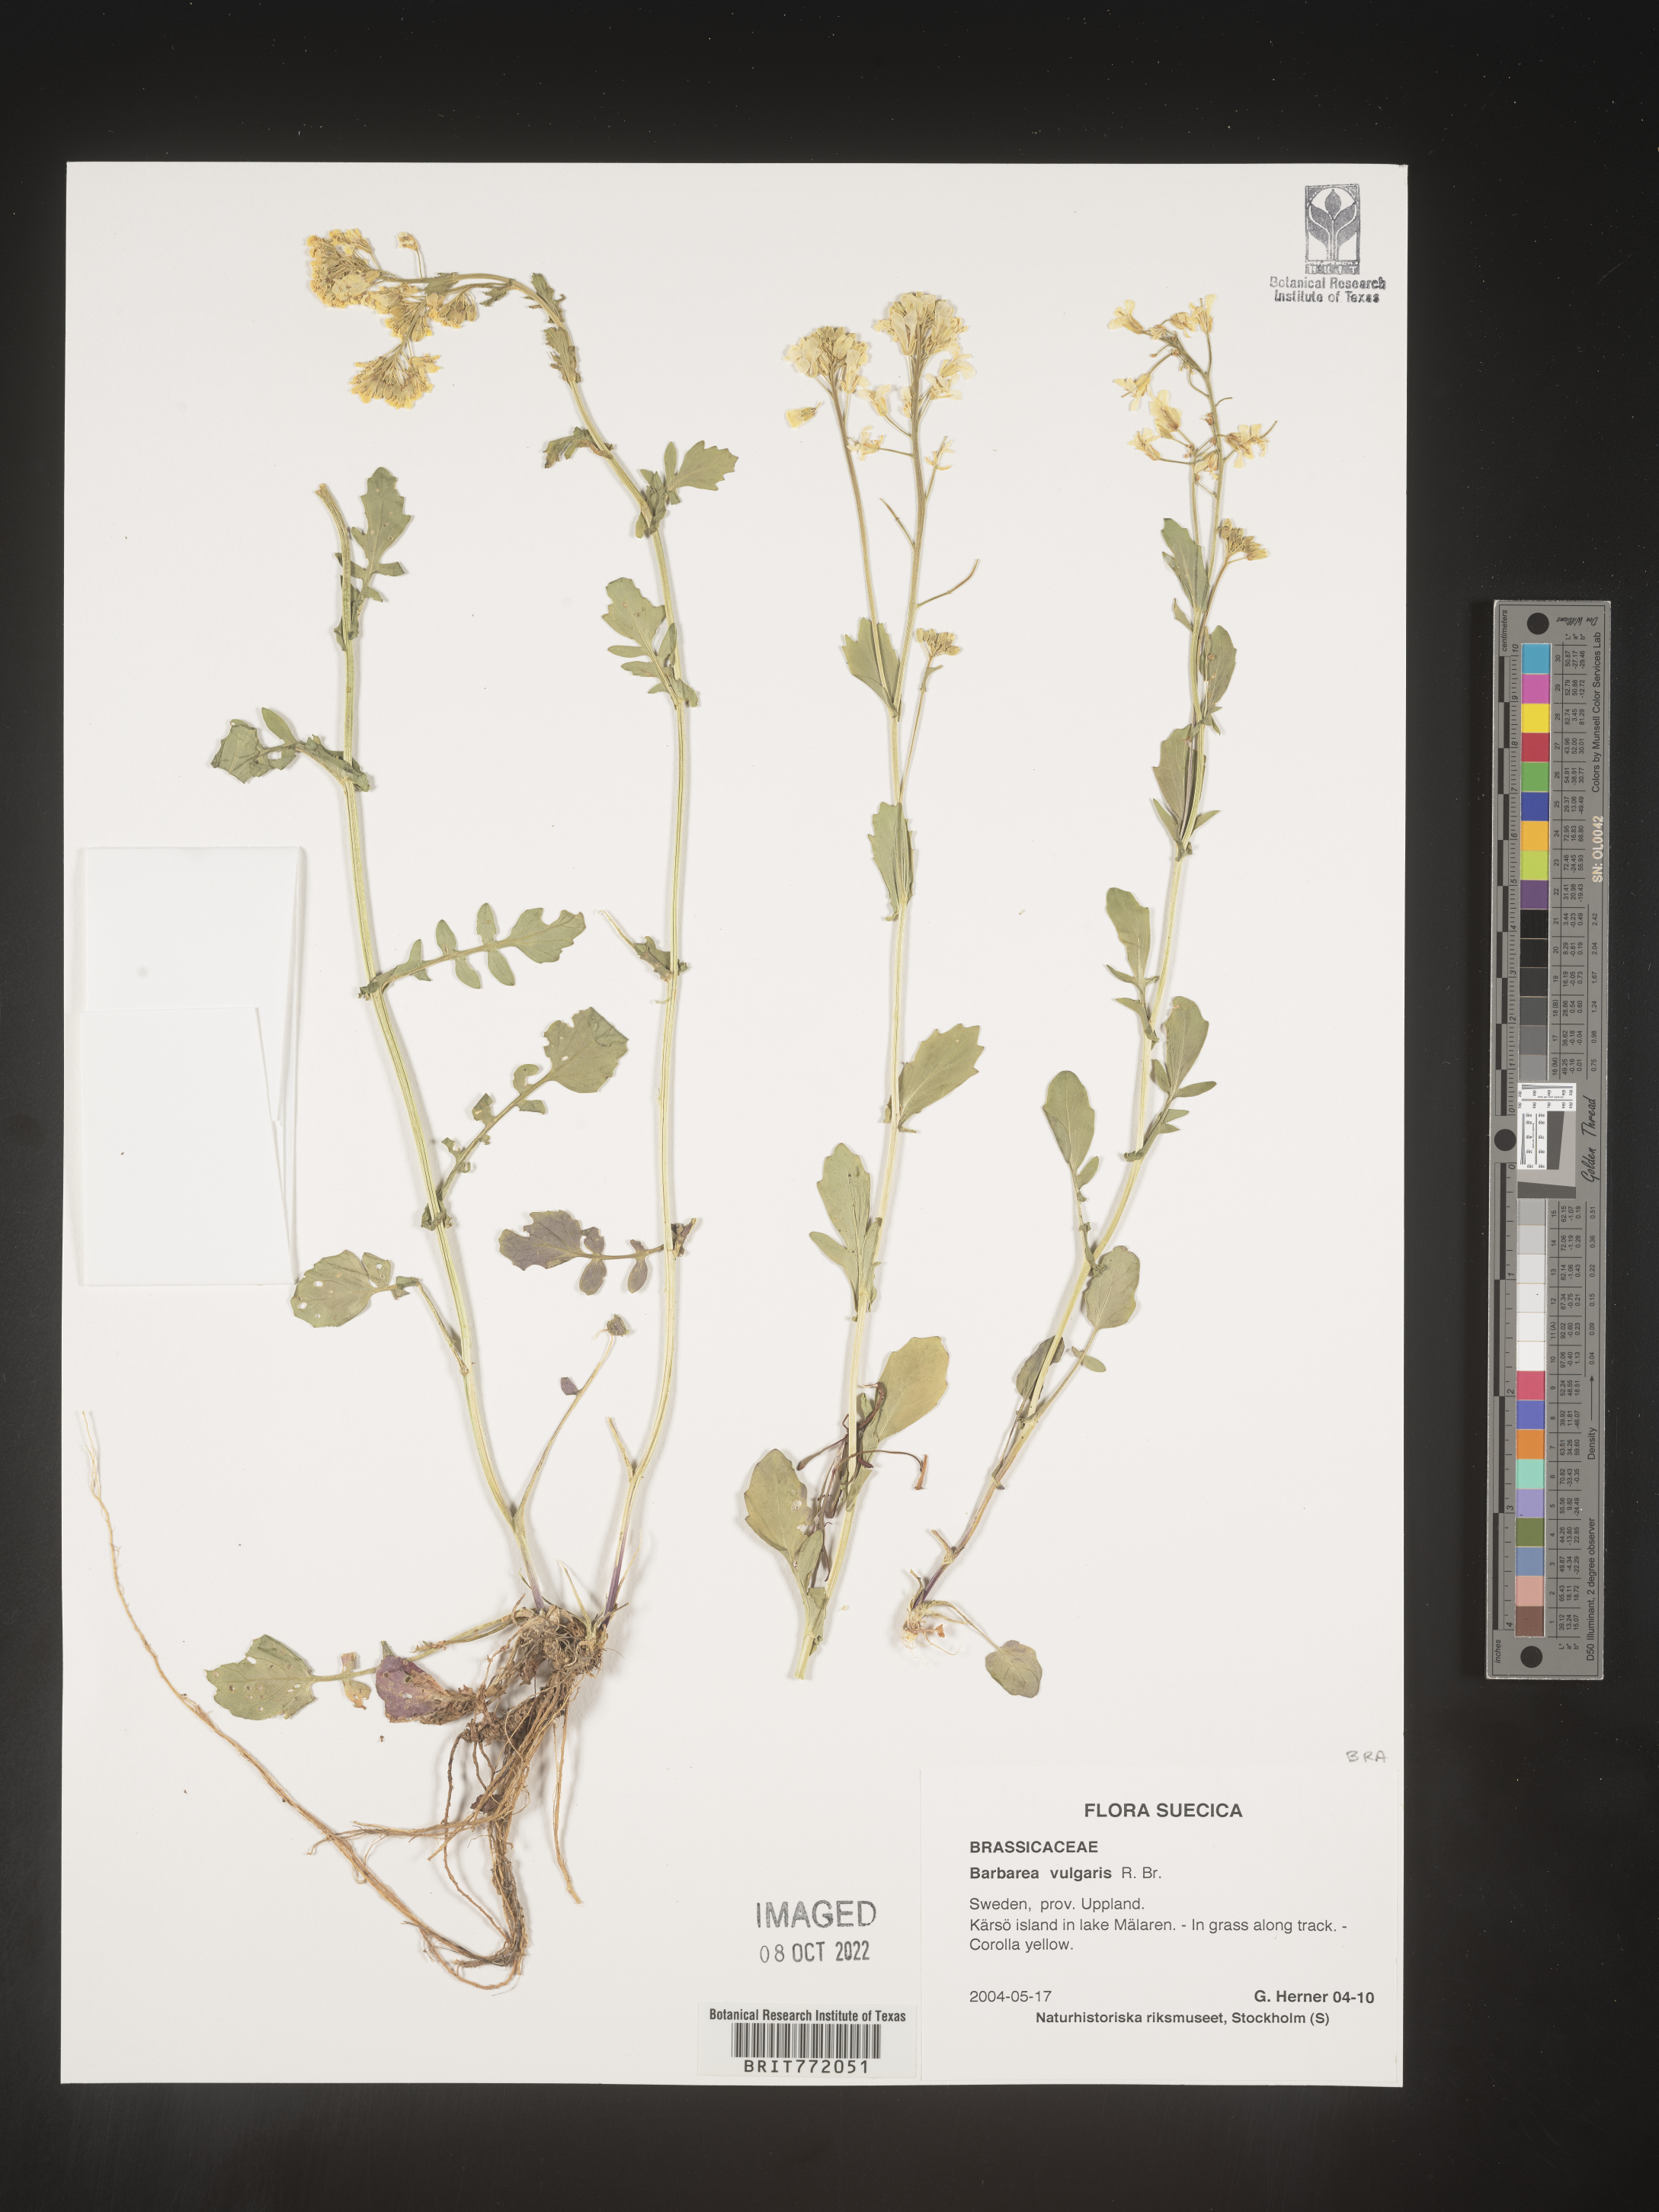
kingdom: Plantae
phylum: Tracheophyta
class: Magnoliopsida
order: Brassicales
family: Brassicaceae
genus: Barbarea
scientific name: Barbarea
